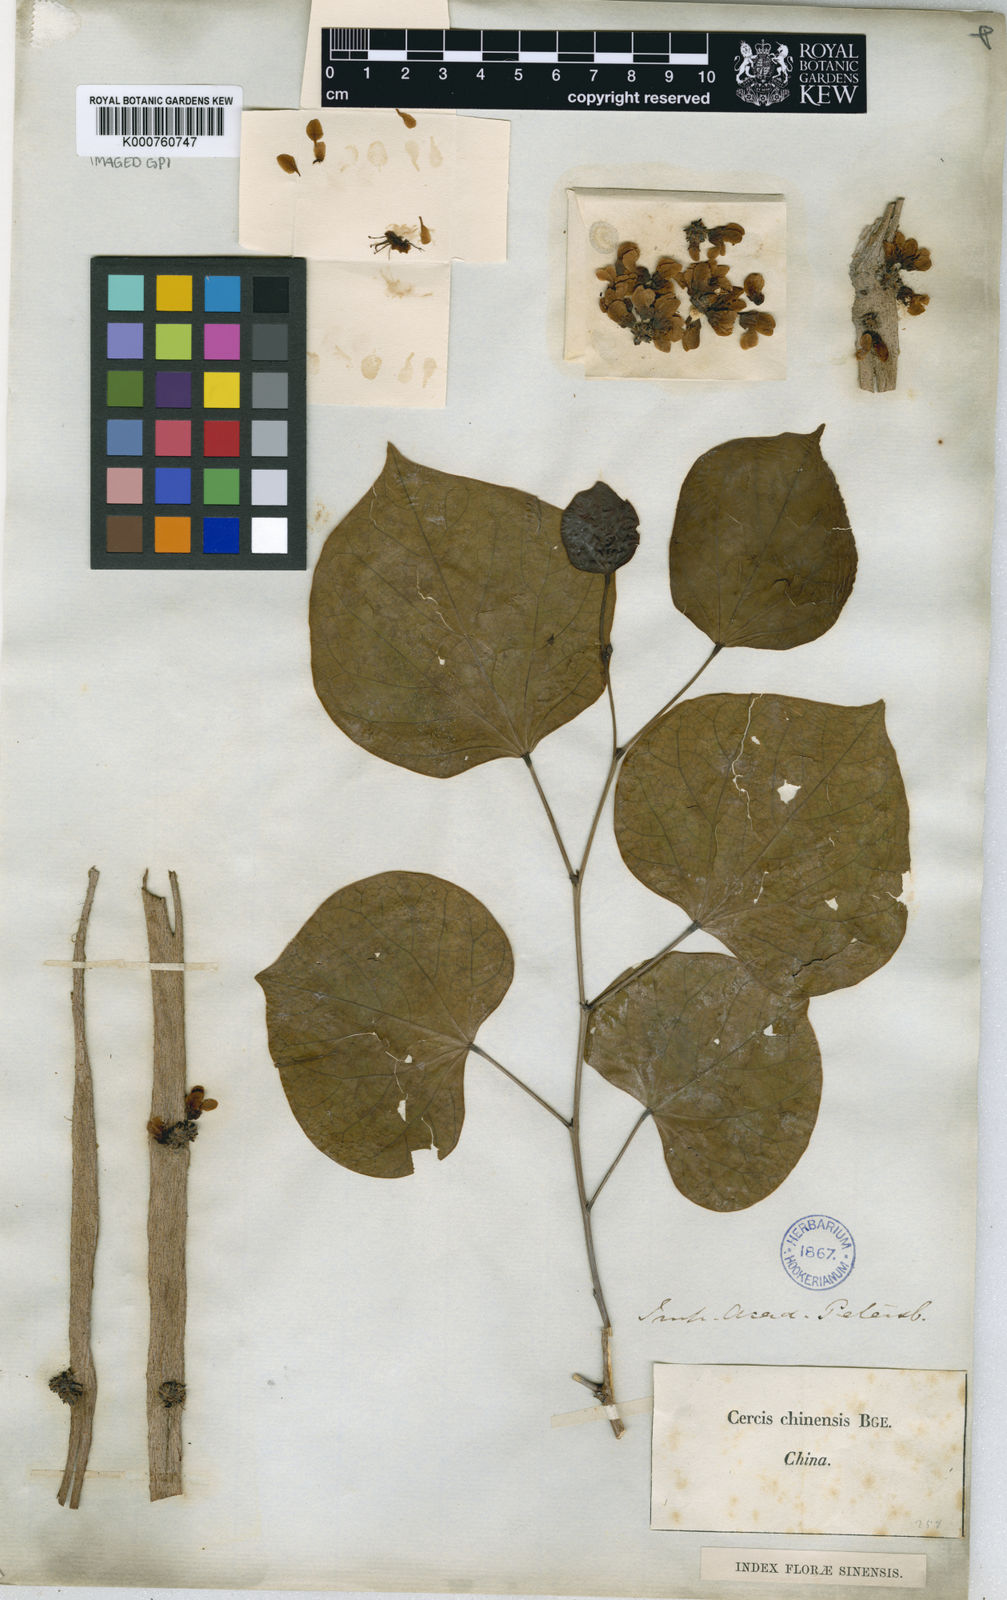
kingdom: Plantae
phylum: Tracheophyta
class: Magnoliopsida
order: Fabales
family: Fabaceae
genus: Cercis
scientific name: Cercis chinensis
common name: Chinese redbud
